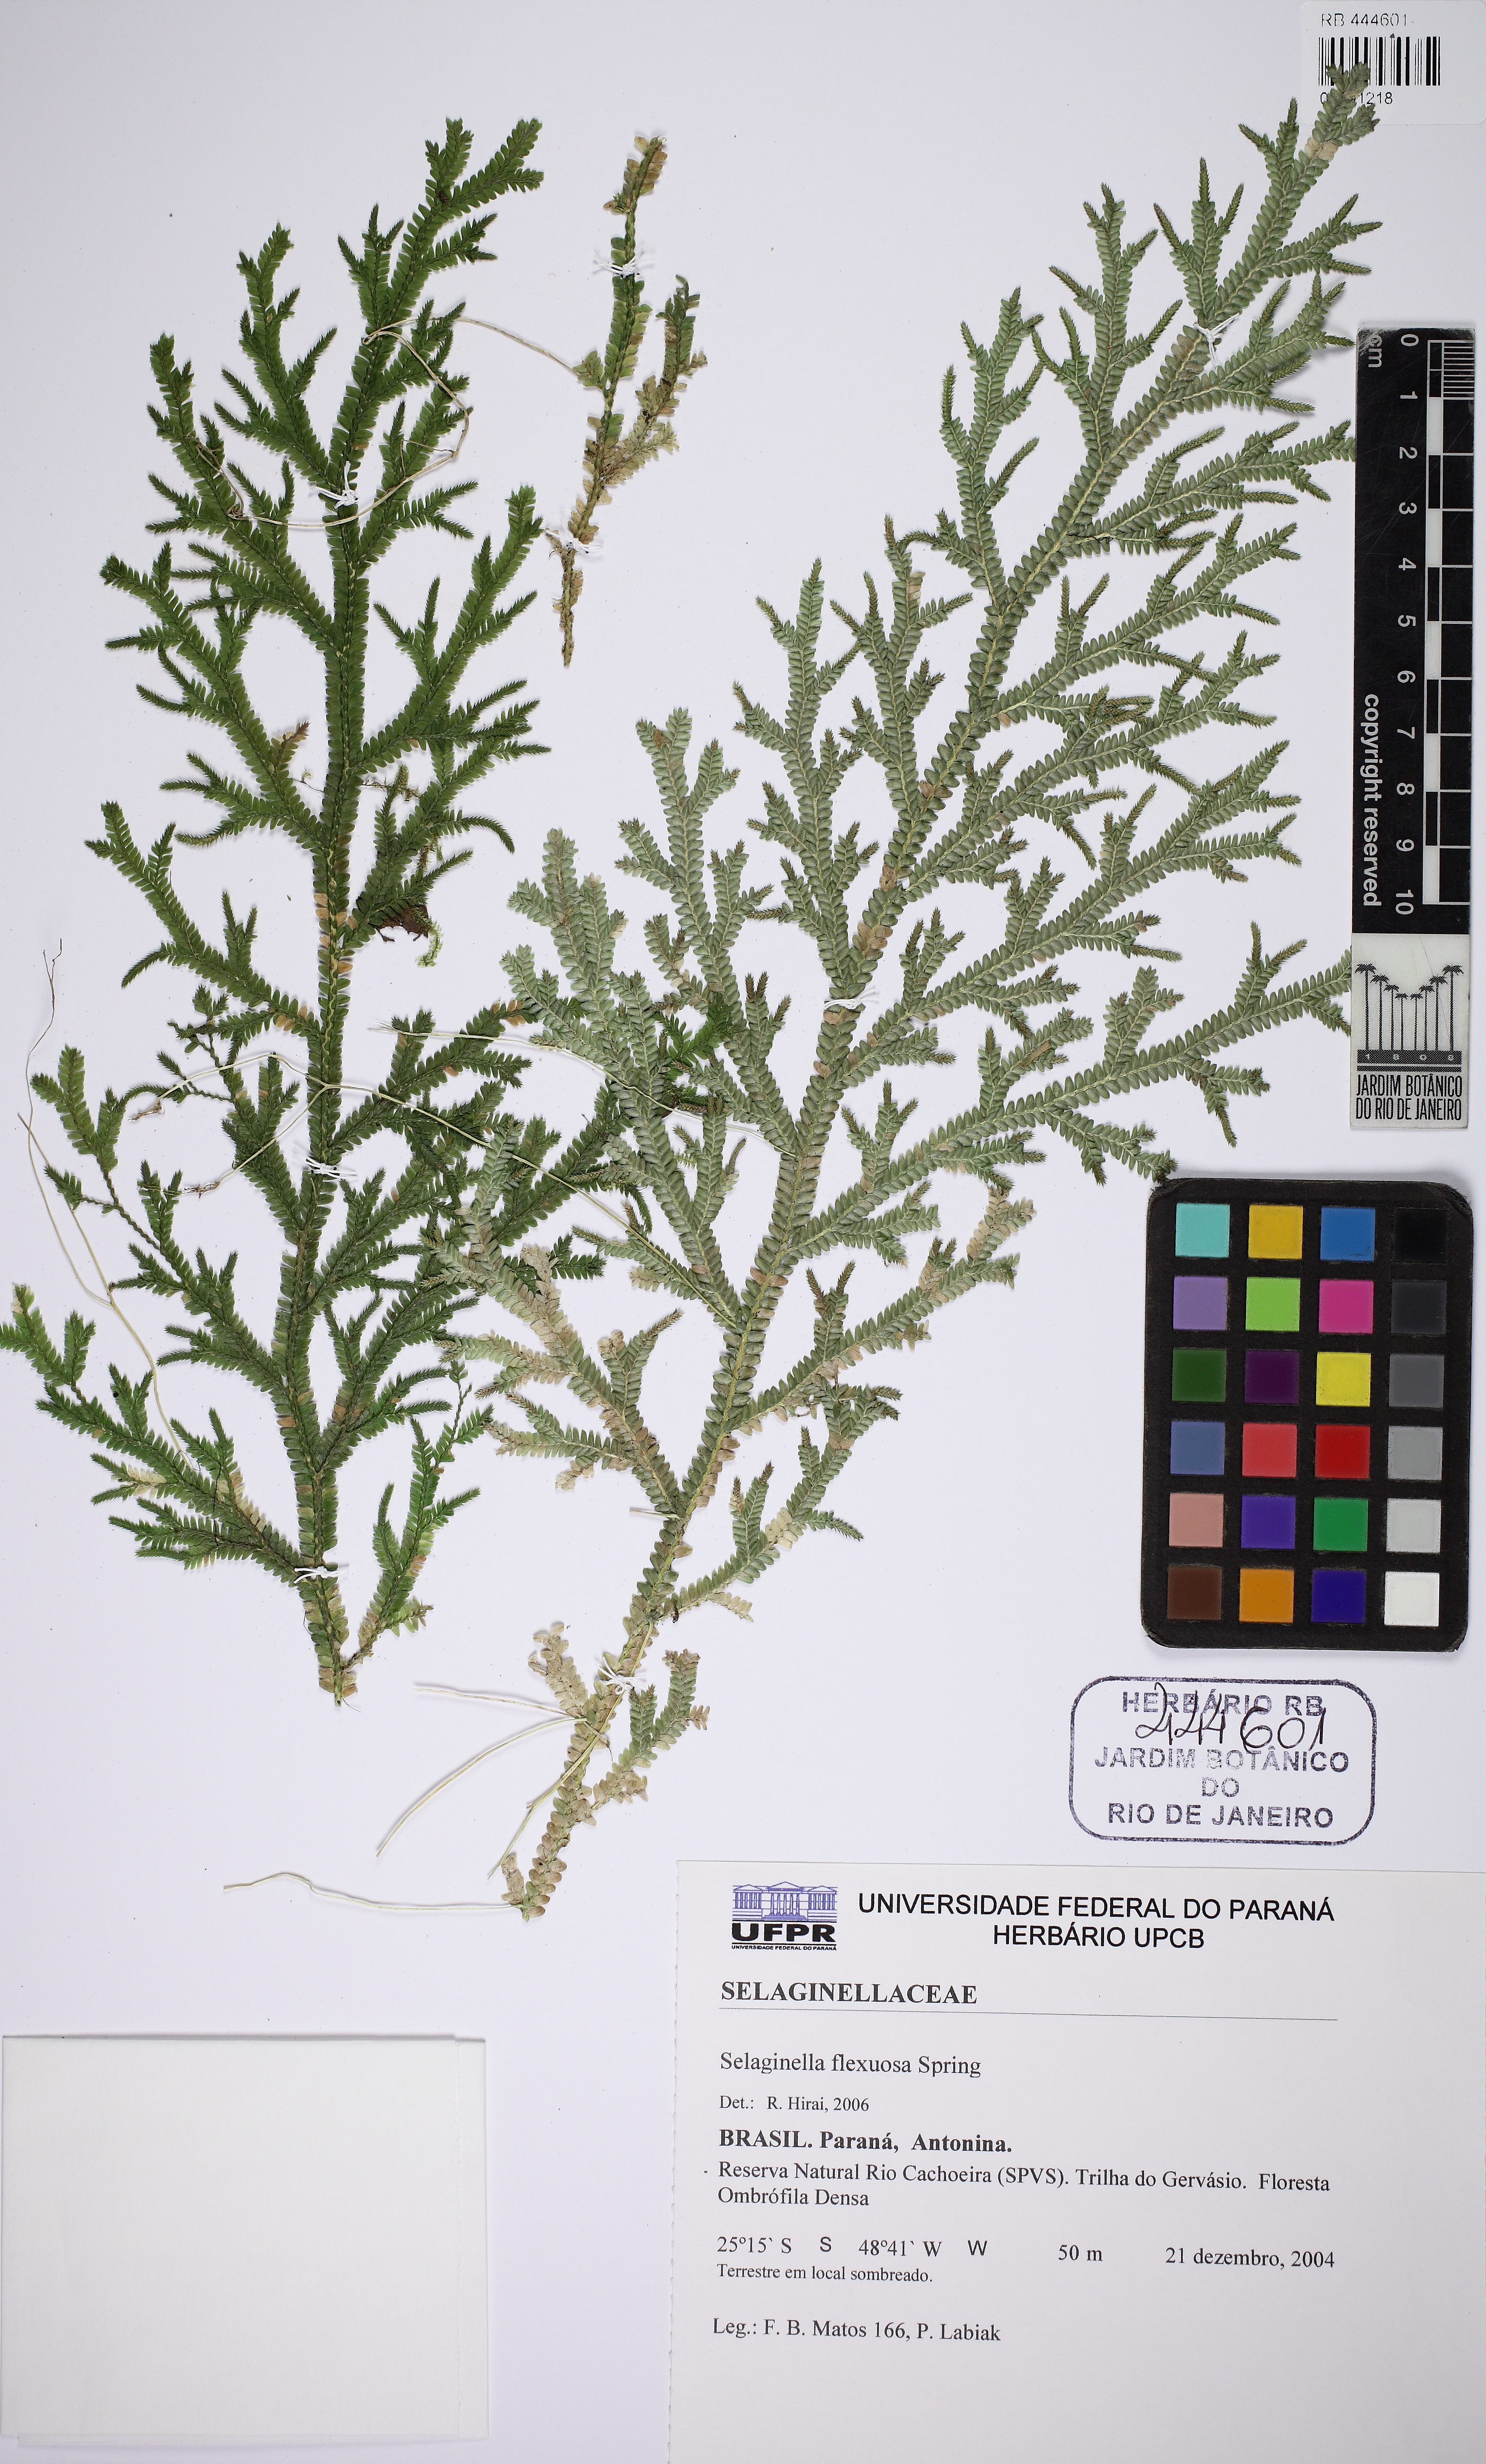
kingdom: Plantae
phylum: Tracheophyta
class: Lycopodiopsida
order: Selaginellales
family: Selaginellaceae
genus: Selaginella
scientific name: Selaginella flexuosa
